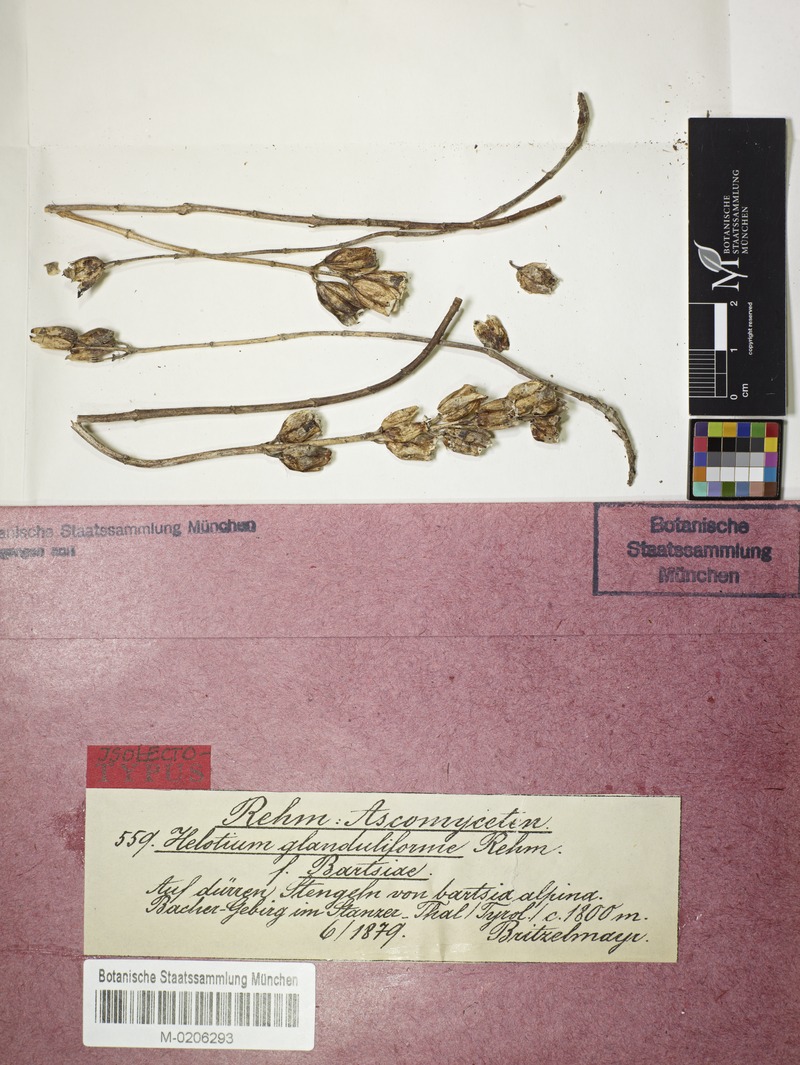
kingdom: Fungi
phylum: Ascomycota
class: Leotiomycetes
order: Helotiales
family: Helotiaceae
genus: Cyathicula
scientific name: Cyathicula cyathoidea
